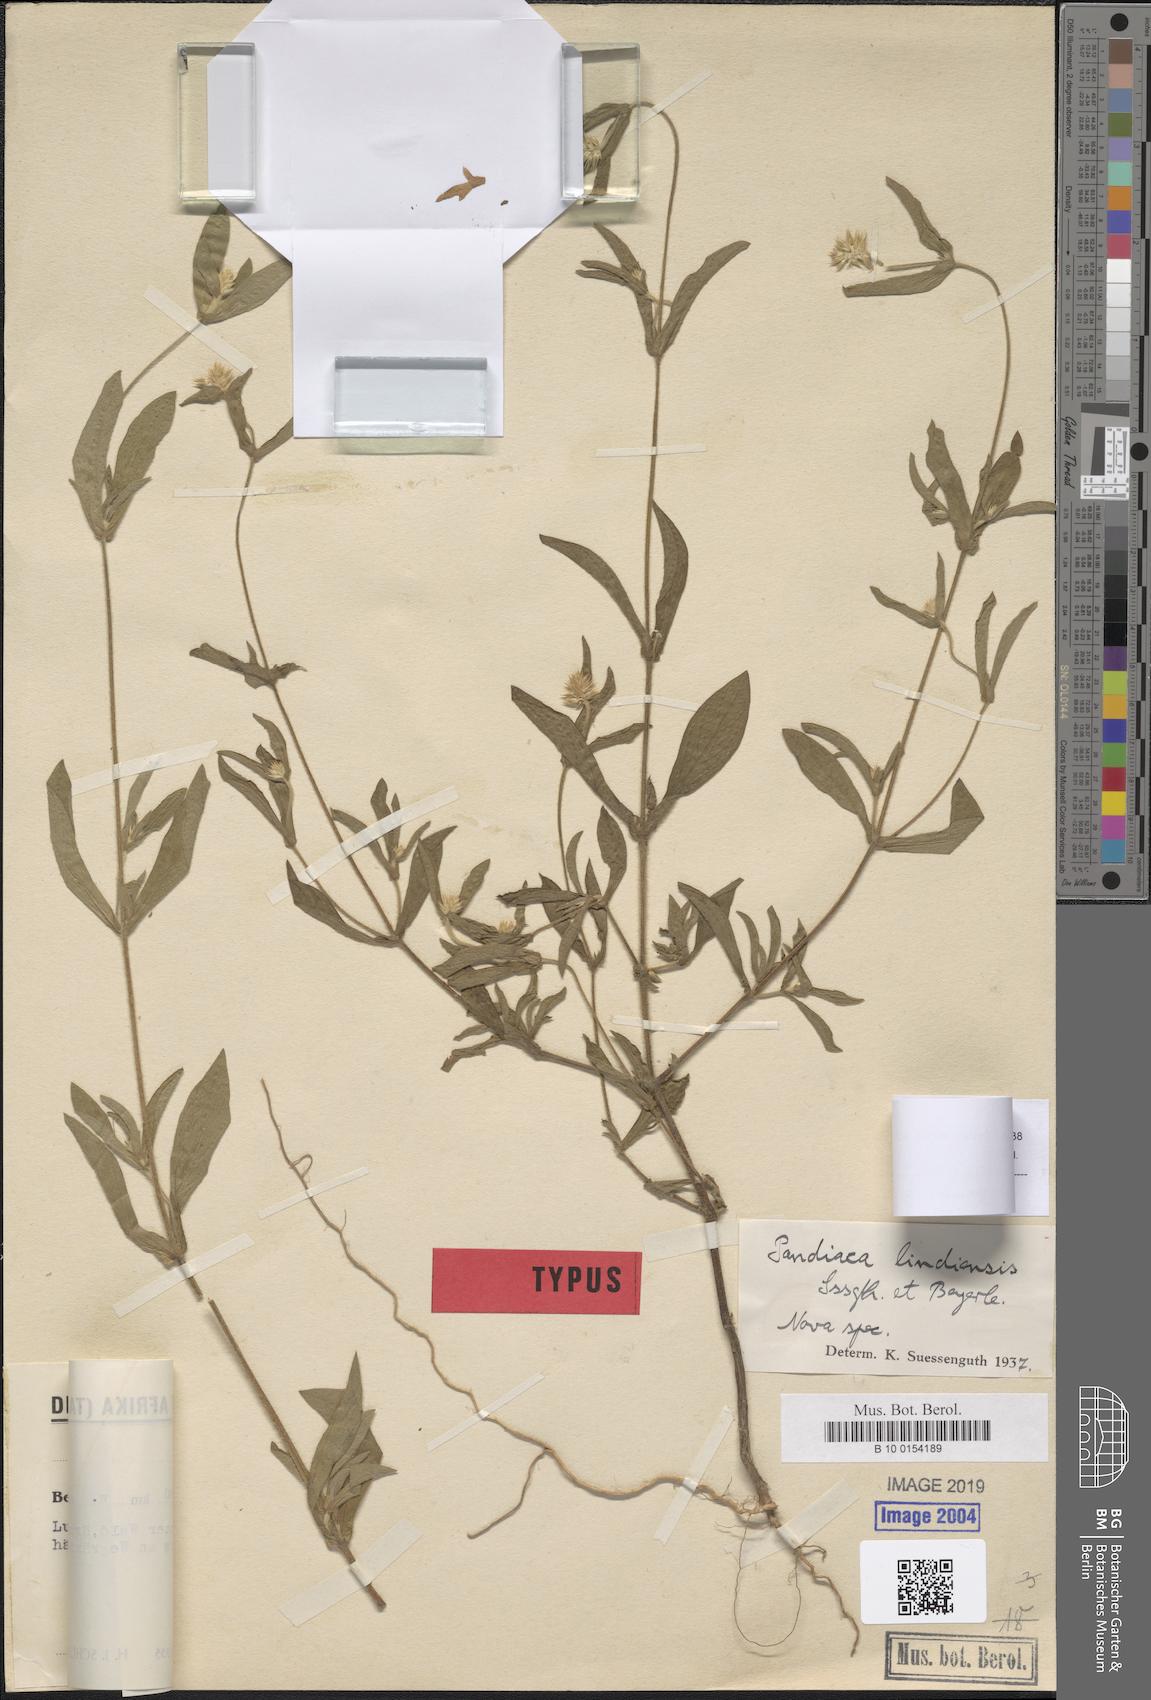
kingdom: Plantae
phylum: Tracheophyta
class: Magnoliopsida
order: Caryophyllales
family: Amaranthaceae
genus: Pandiaka
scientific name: Pandiaka rubrolutea
